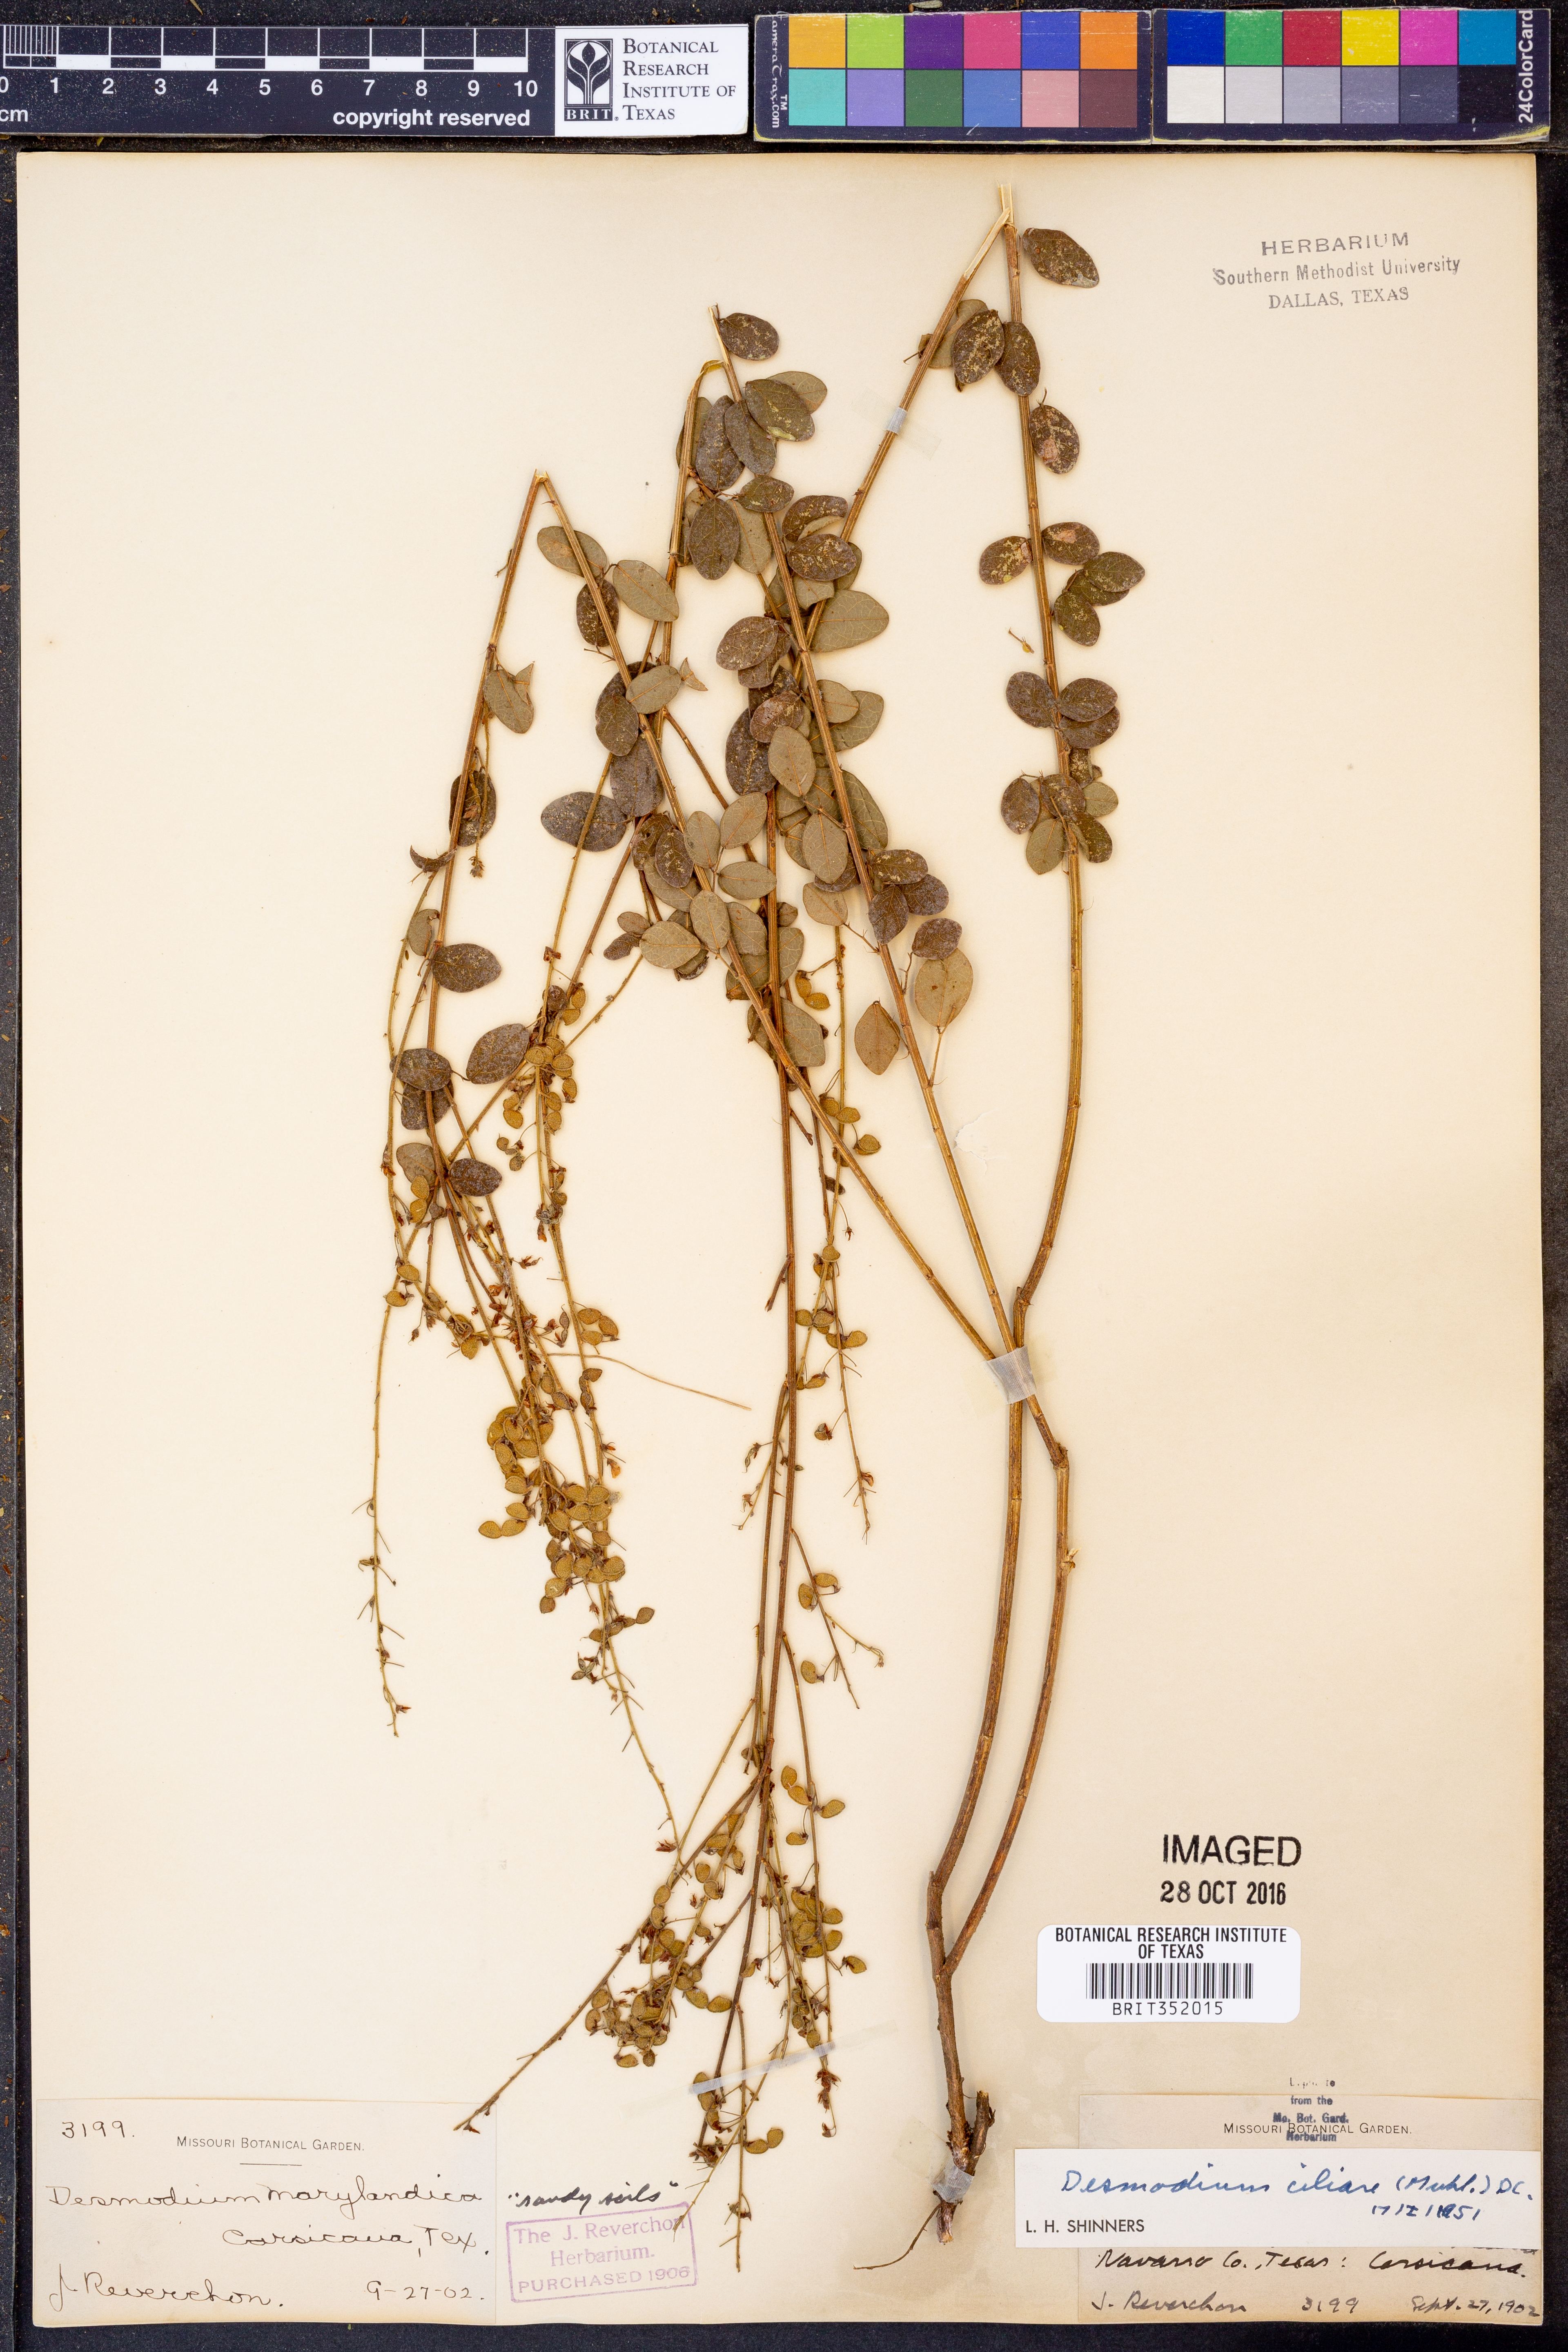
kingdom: Plantae
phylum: Tracheophyta
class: Magnoliopsida
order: Fabales
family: Fabaceae
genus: Desmodium
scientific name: Desmodium ciliare
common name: Hairy small-leaf ticktrefoil
